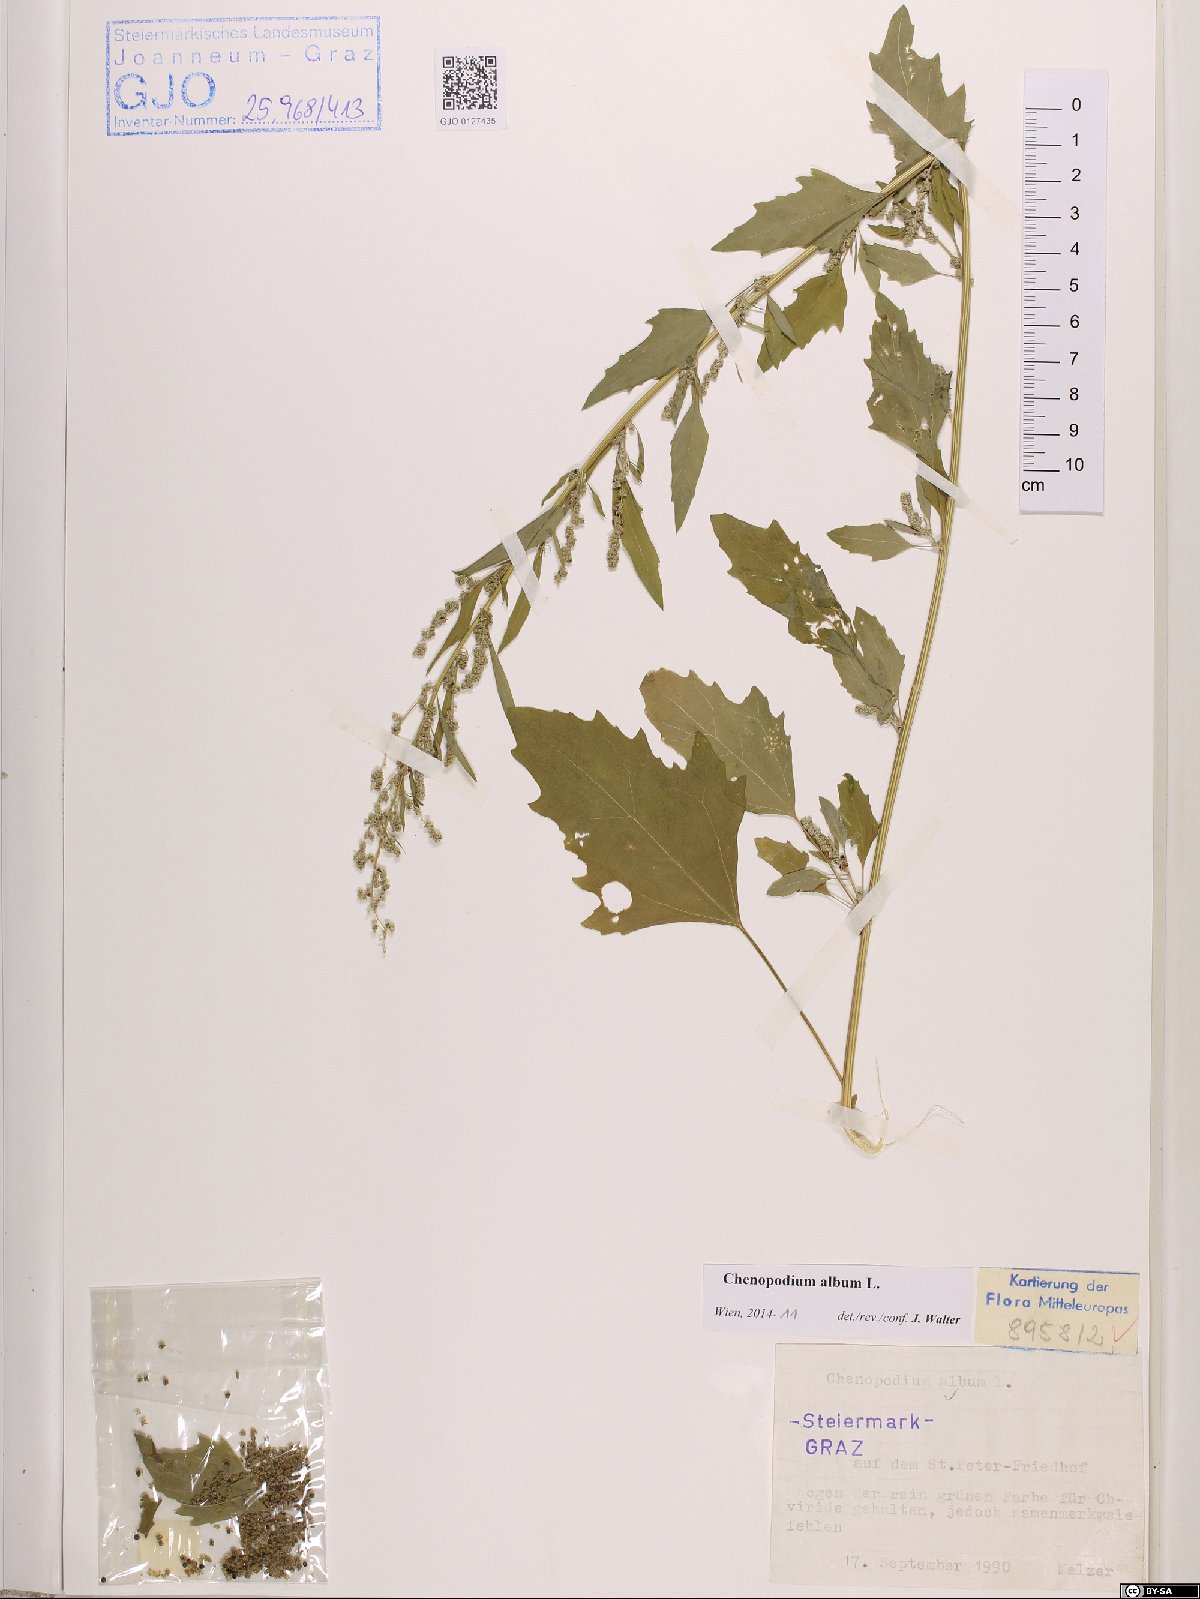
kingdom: Plantae
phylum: Tracheophyta
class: Magnoliopsida
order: Caryophyllales
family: Amaranthaceae
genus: Chenopodium
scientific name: Chenopodium album
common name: Fat-hen
